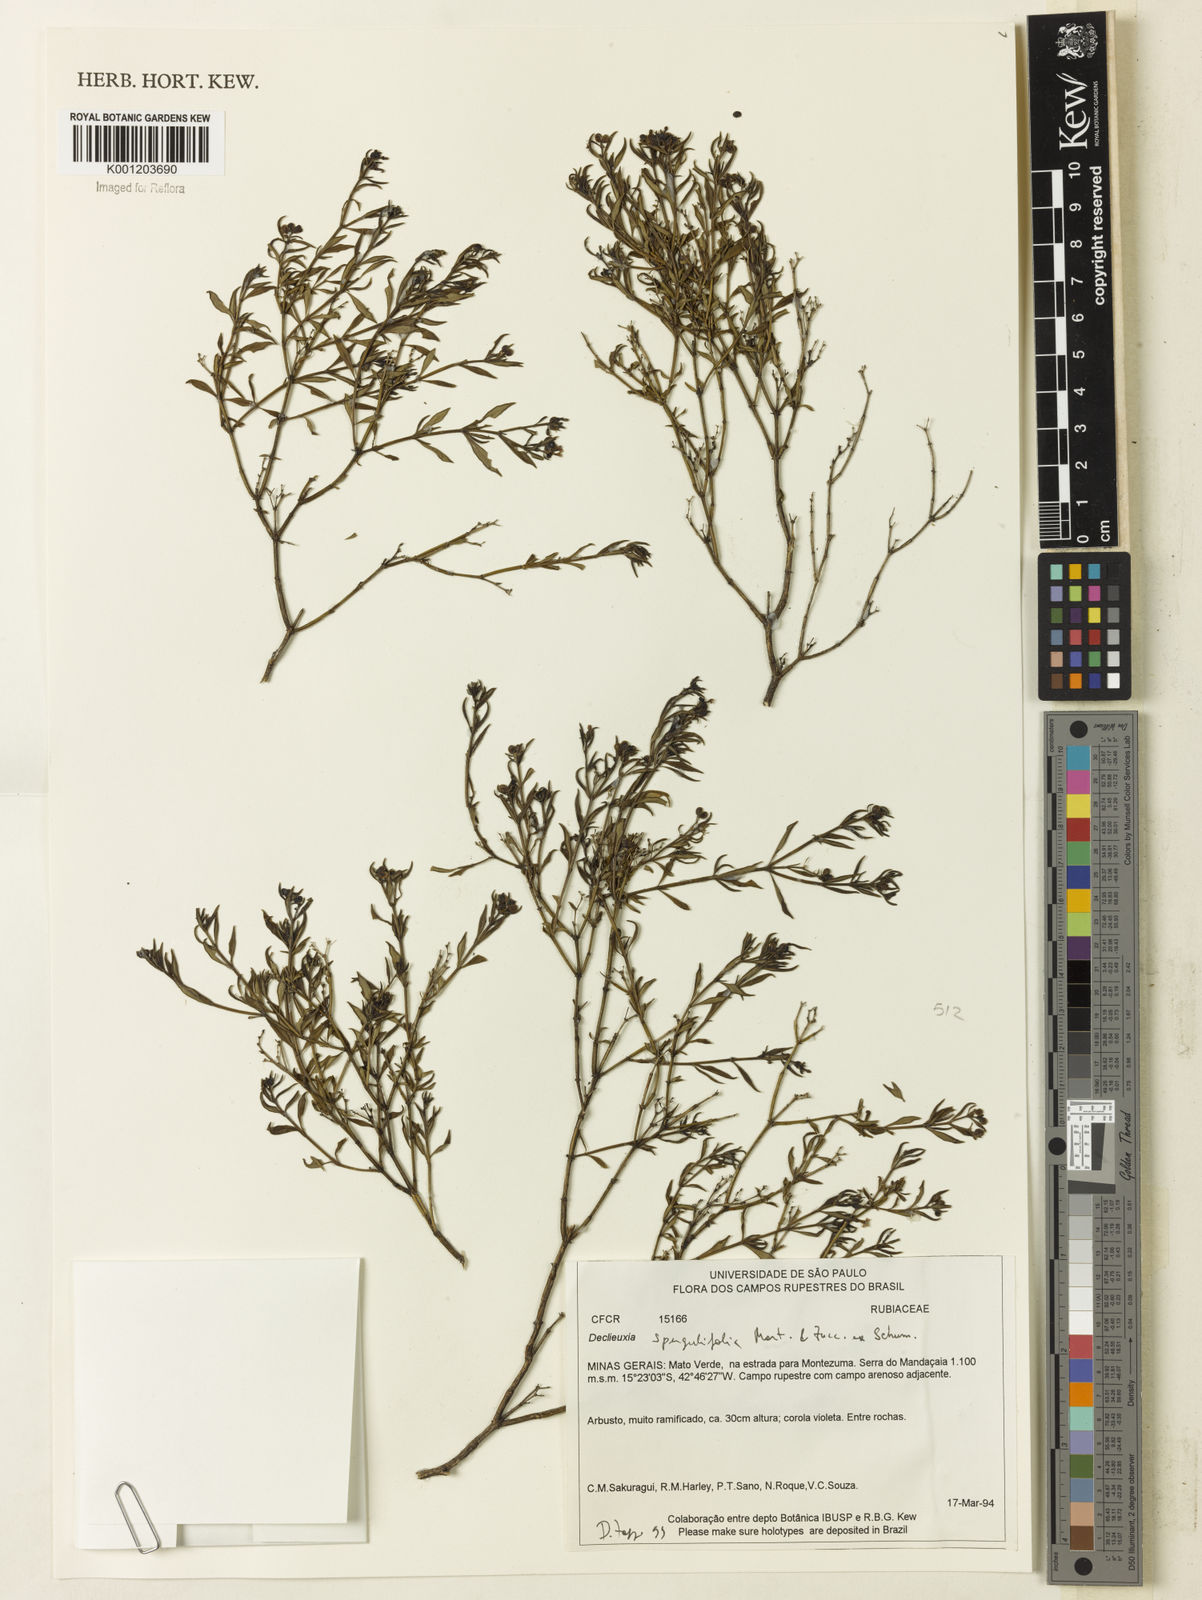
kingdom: Plantae
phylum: Tracheophyta
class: Magnoliopsida
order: Gentianales
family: Rubiaceae
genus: Declieuxia
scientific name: Declieuxia
